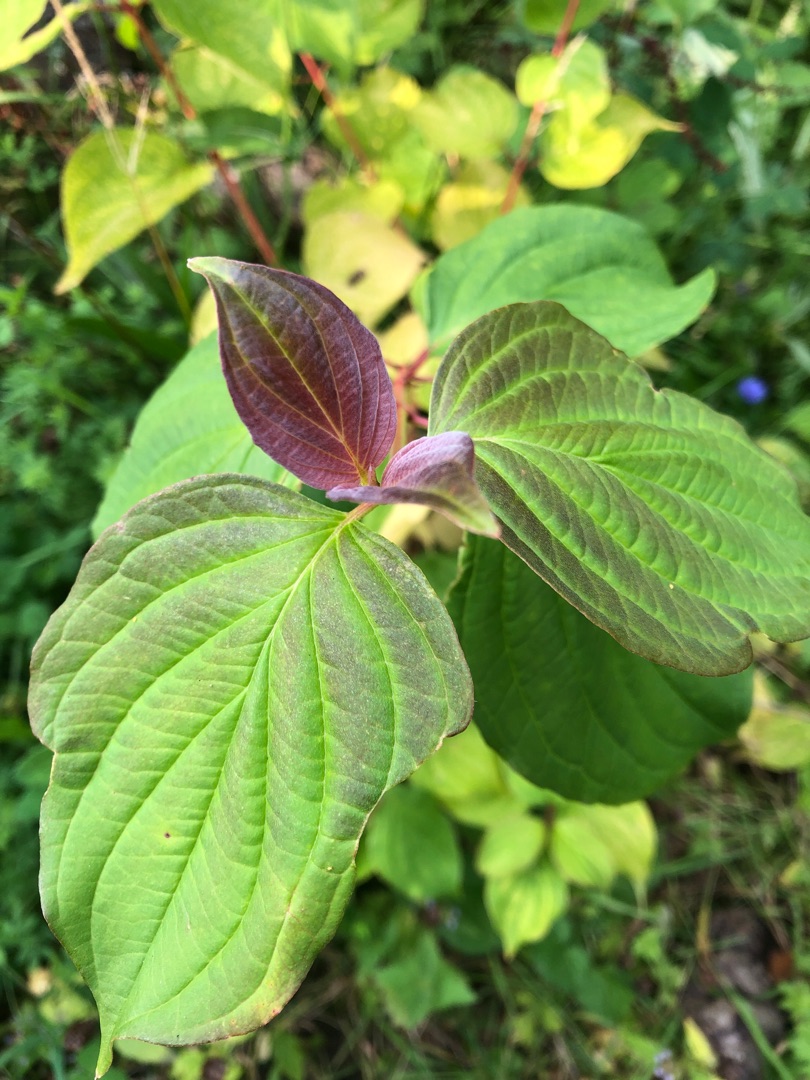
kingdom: Plantae
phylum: Tracheophyta
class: Magnoliopsida
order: Cornales
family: Cornaceae
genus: Cornus
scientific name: Cornus sanguinea
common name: Rød kornel
